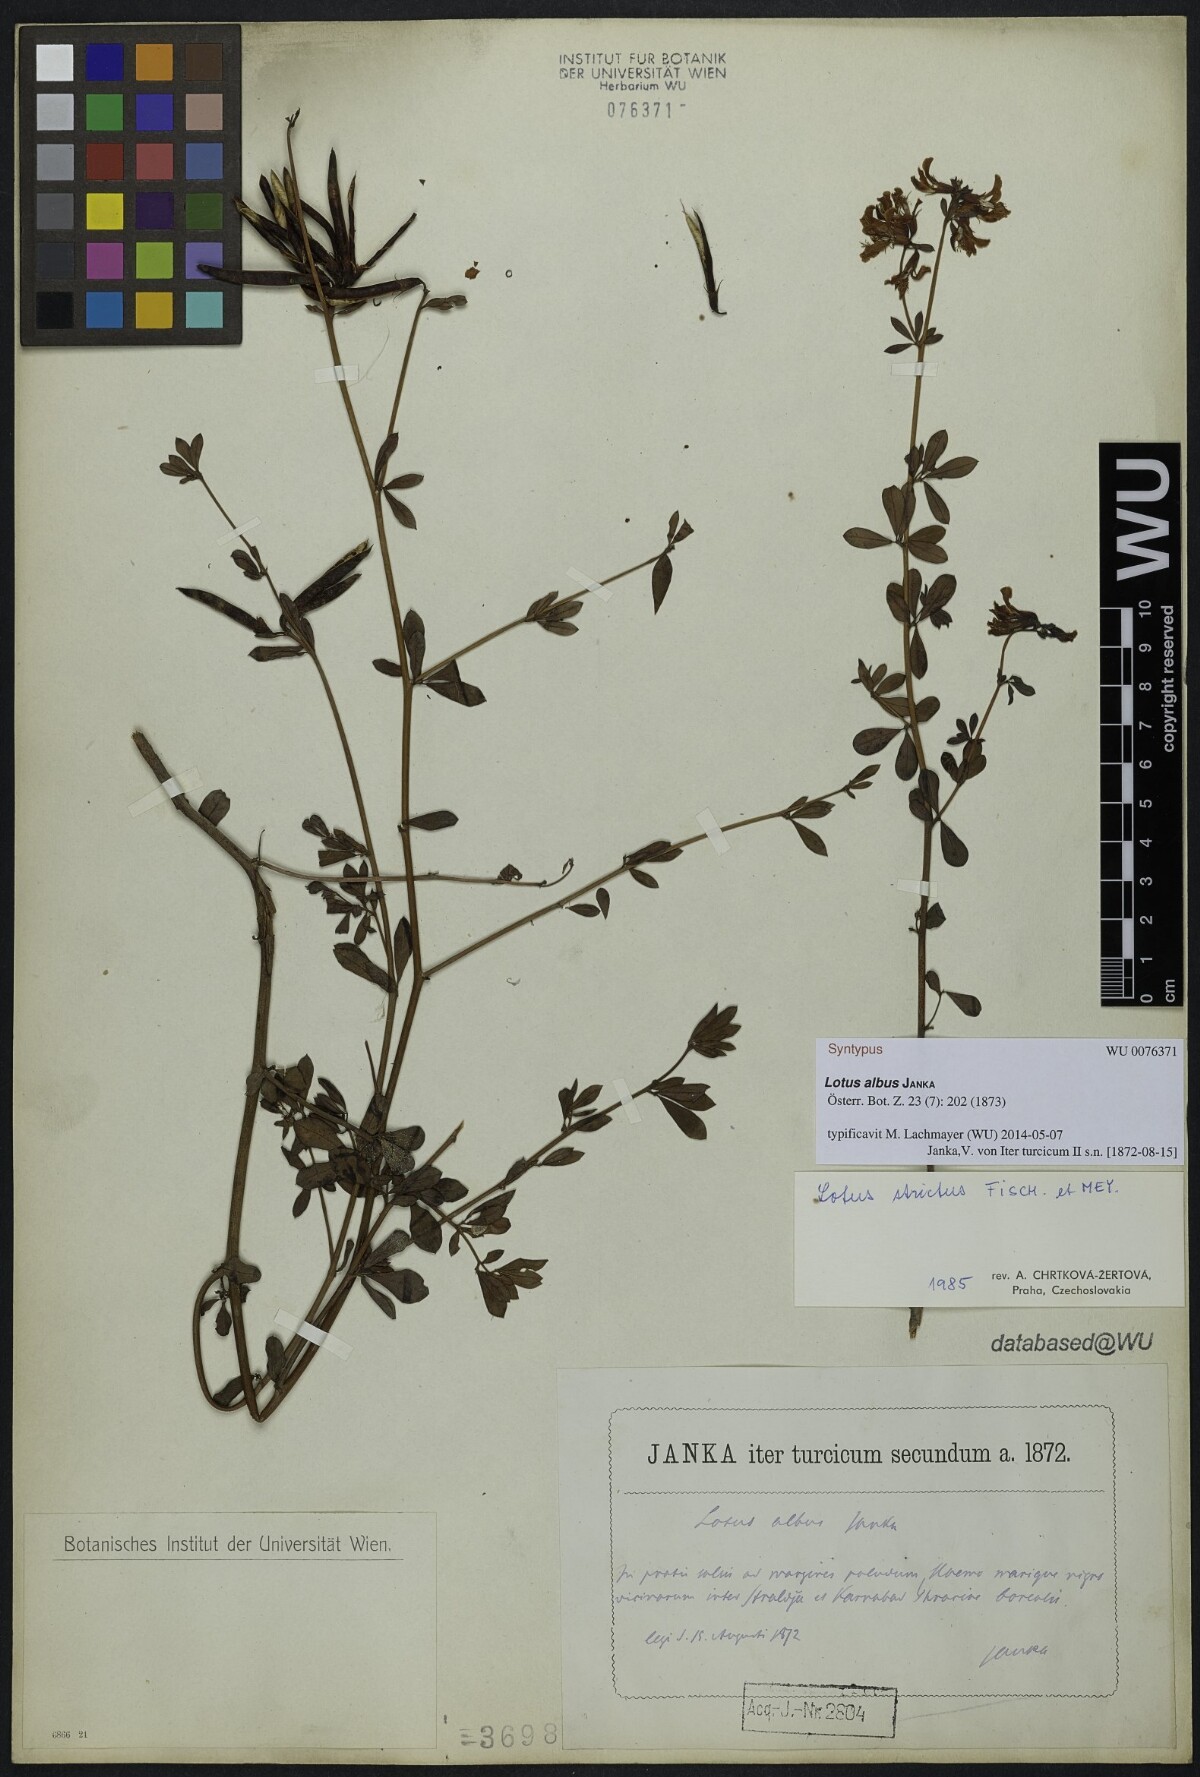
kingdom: Plantae
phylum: Tracheophyta
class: Magnoliopsida
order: Fabales
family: Fabaceae
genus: Lotus
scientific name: Lotus strictus
